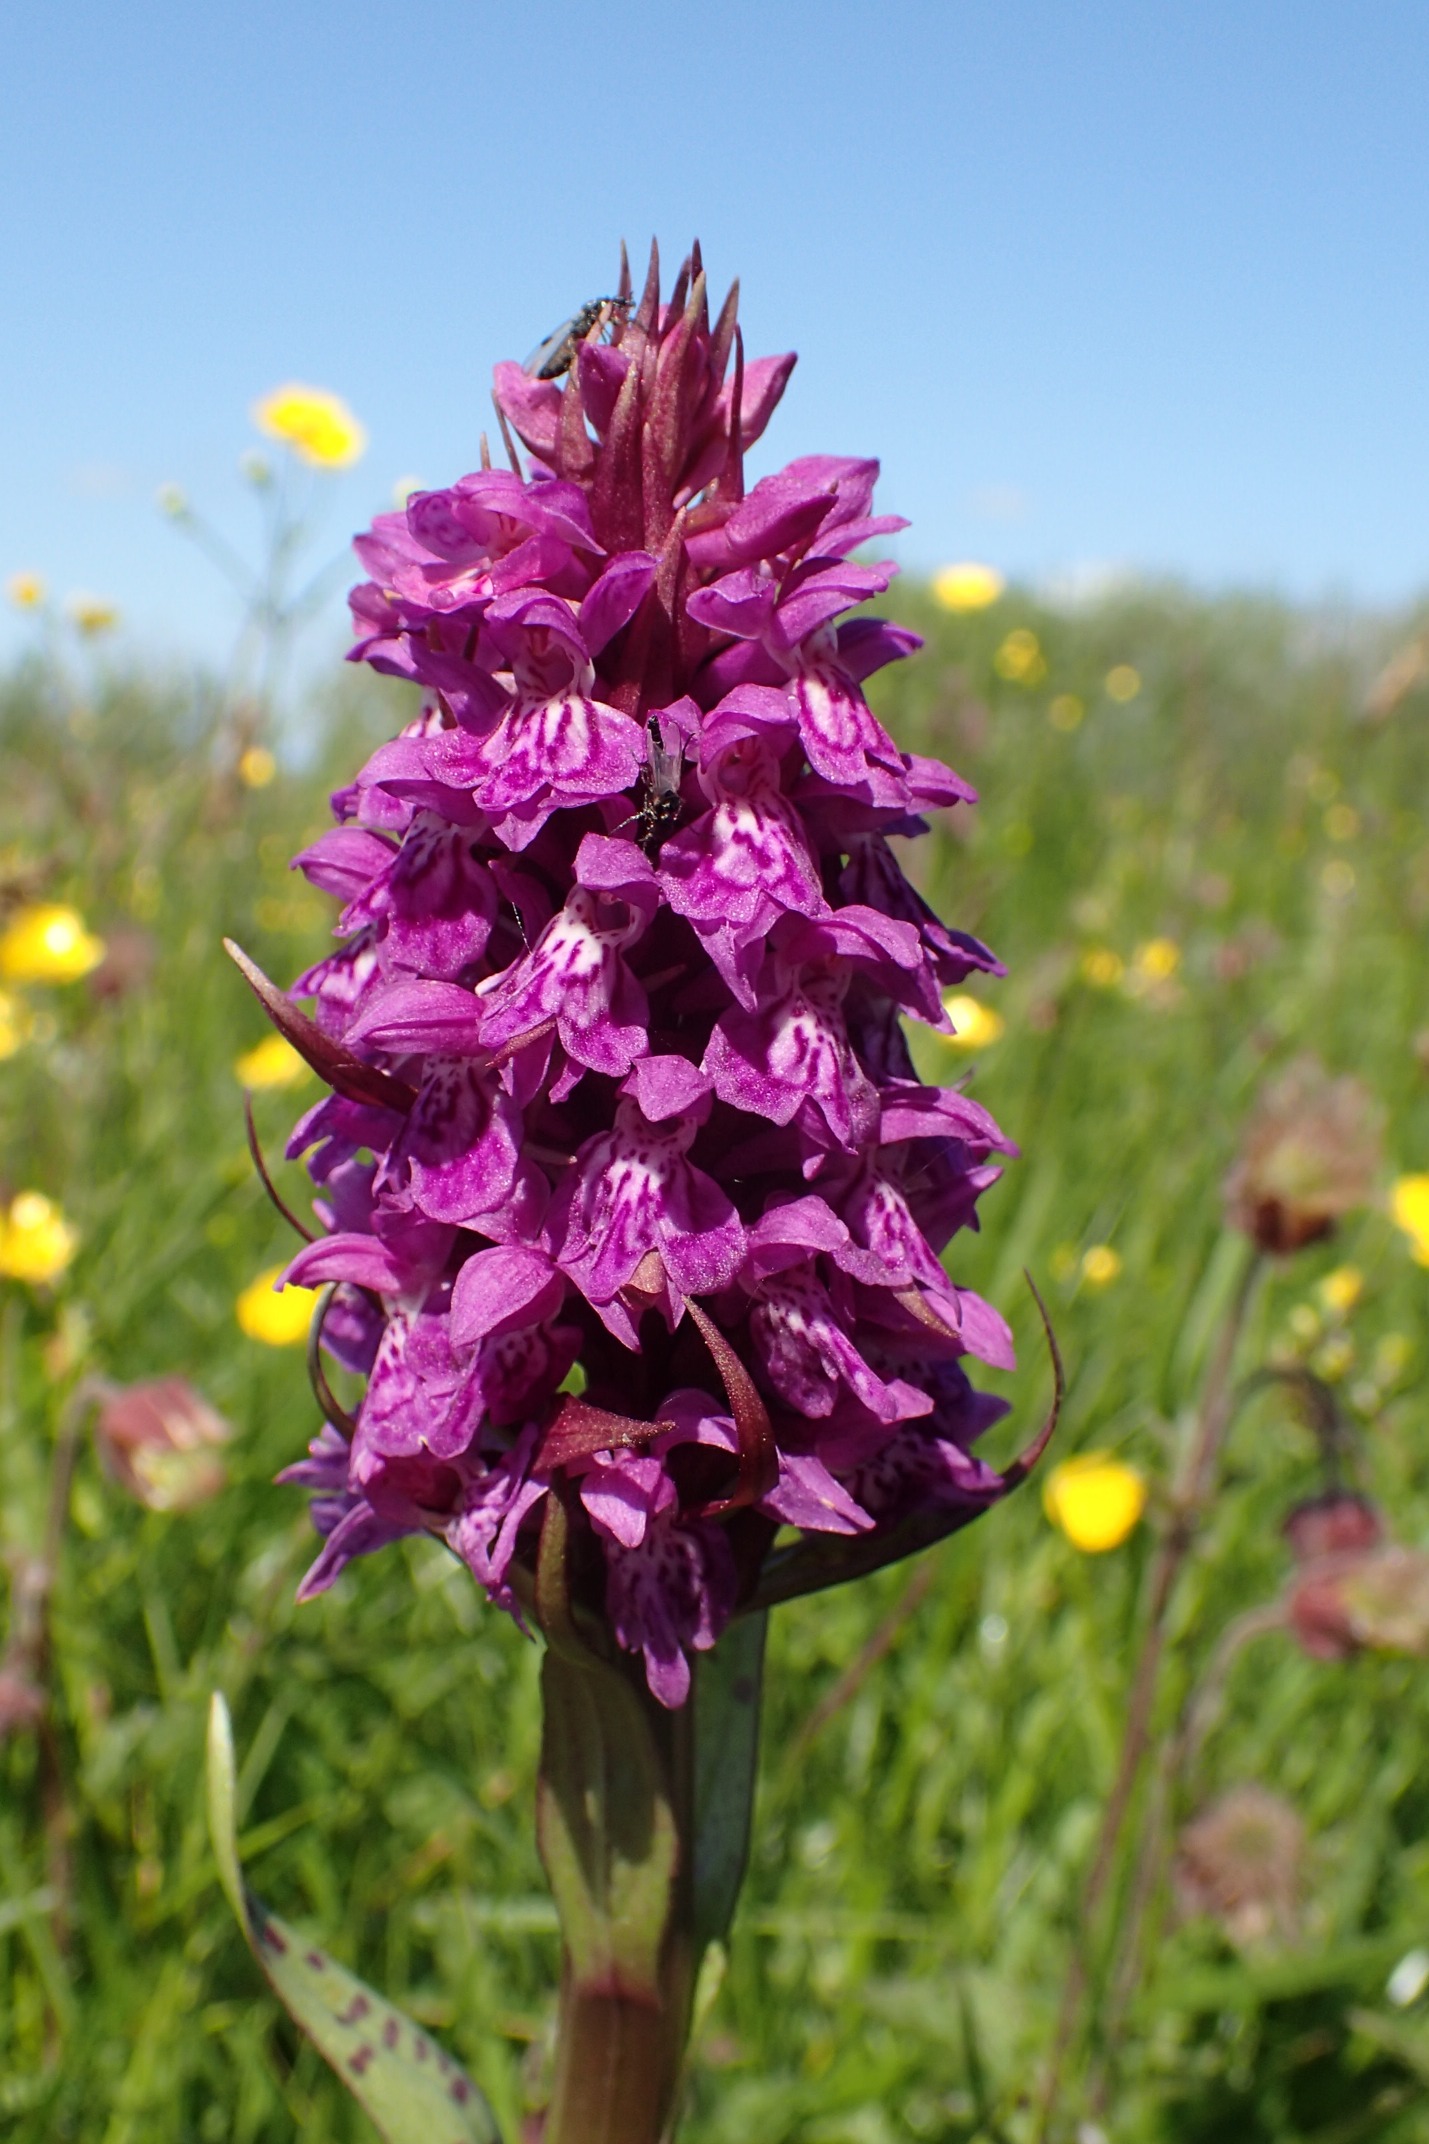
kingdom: Plantae
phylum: Tracheophyta
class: Liliopsida
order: Asparagales
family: Orchidaceae
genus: Dactylorhiza
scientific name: Dactylorhiza majalis
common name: Maj-gøgeurt
